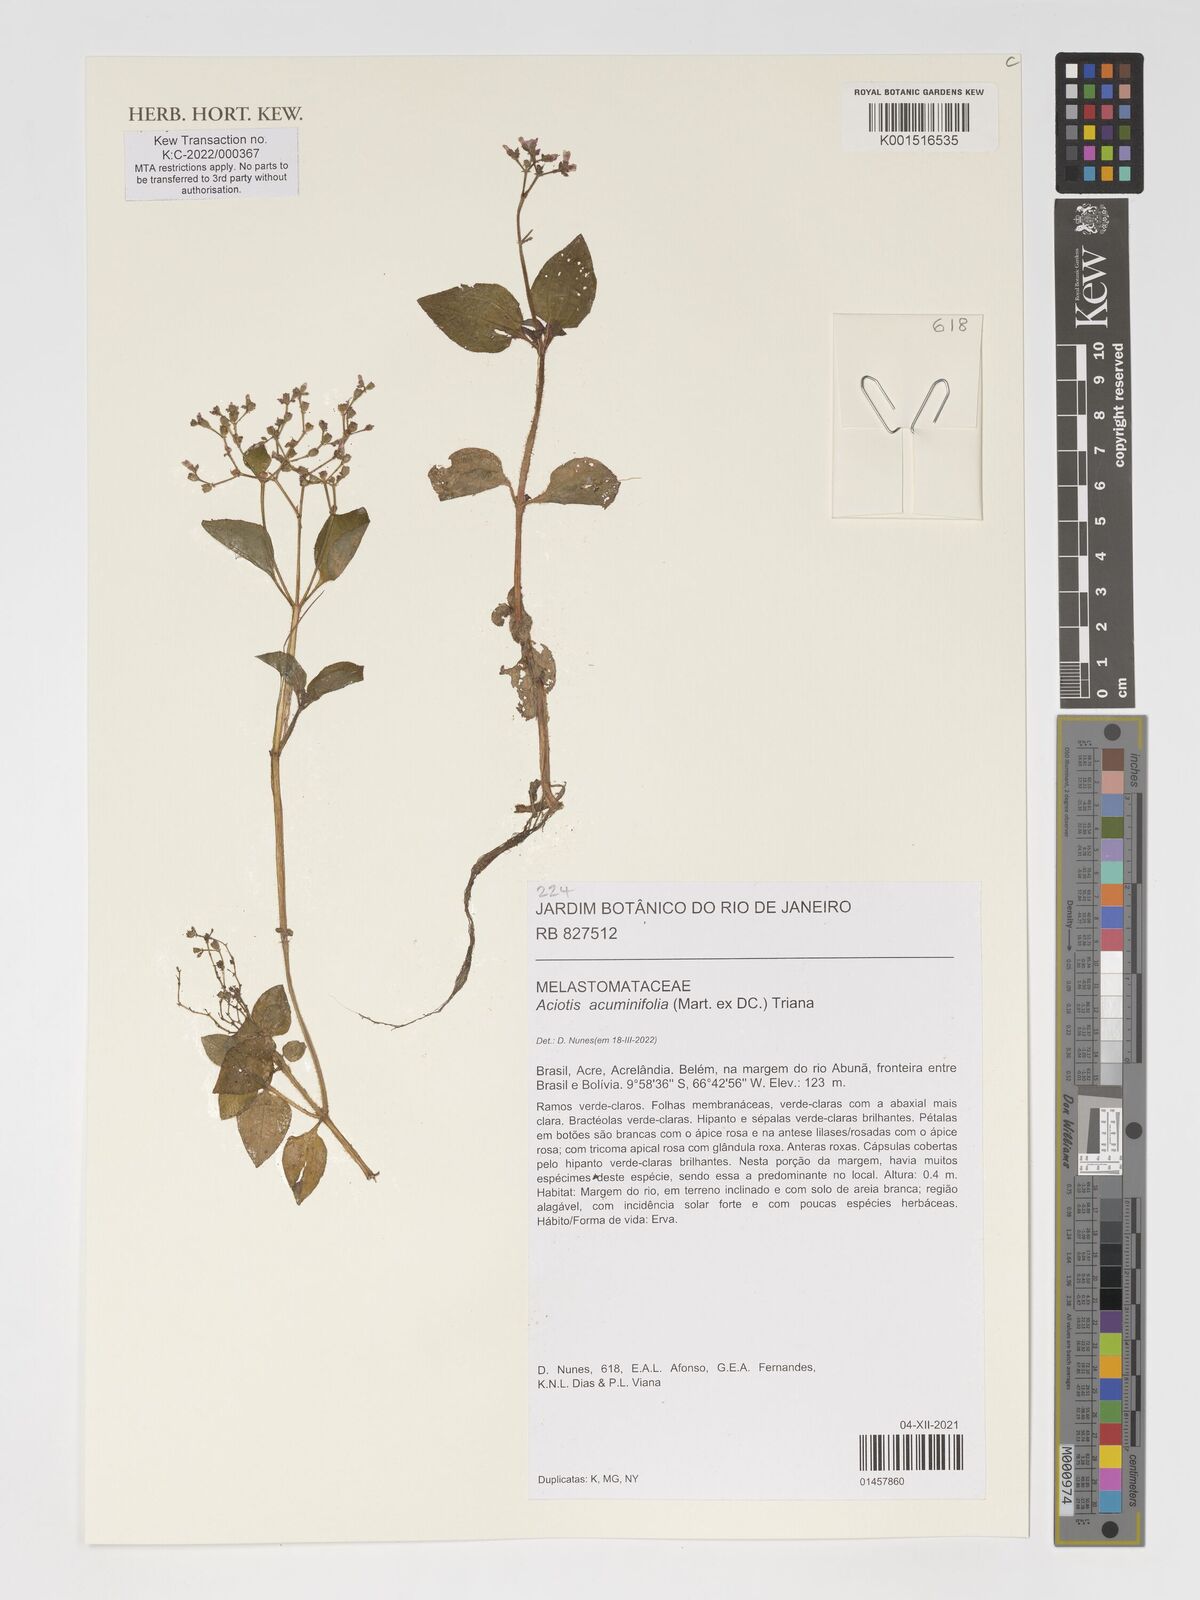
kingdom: Plantae
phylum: Tracheophyta
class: Magnoliopsida
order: Myrtales
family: Melastomataceae
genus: Aciotis
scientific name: Aciotis acuminifolia
